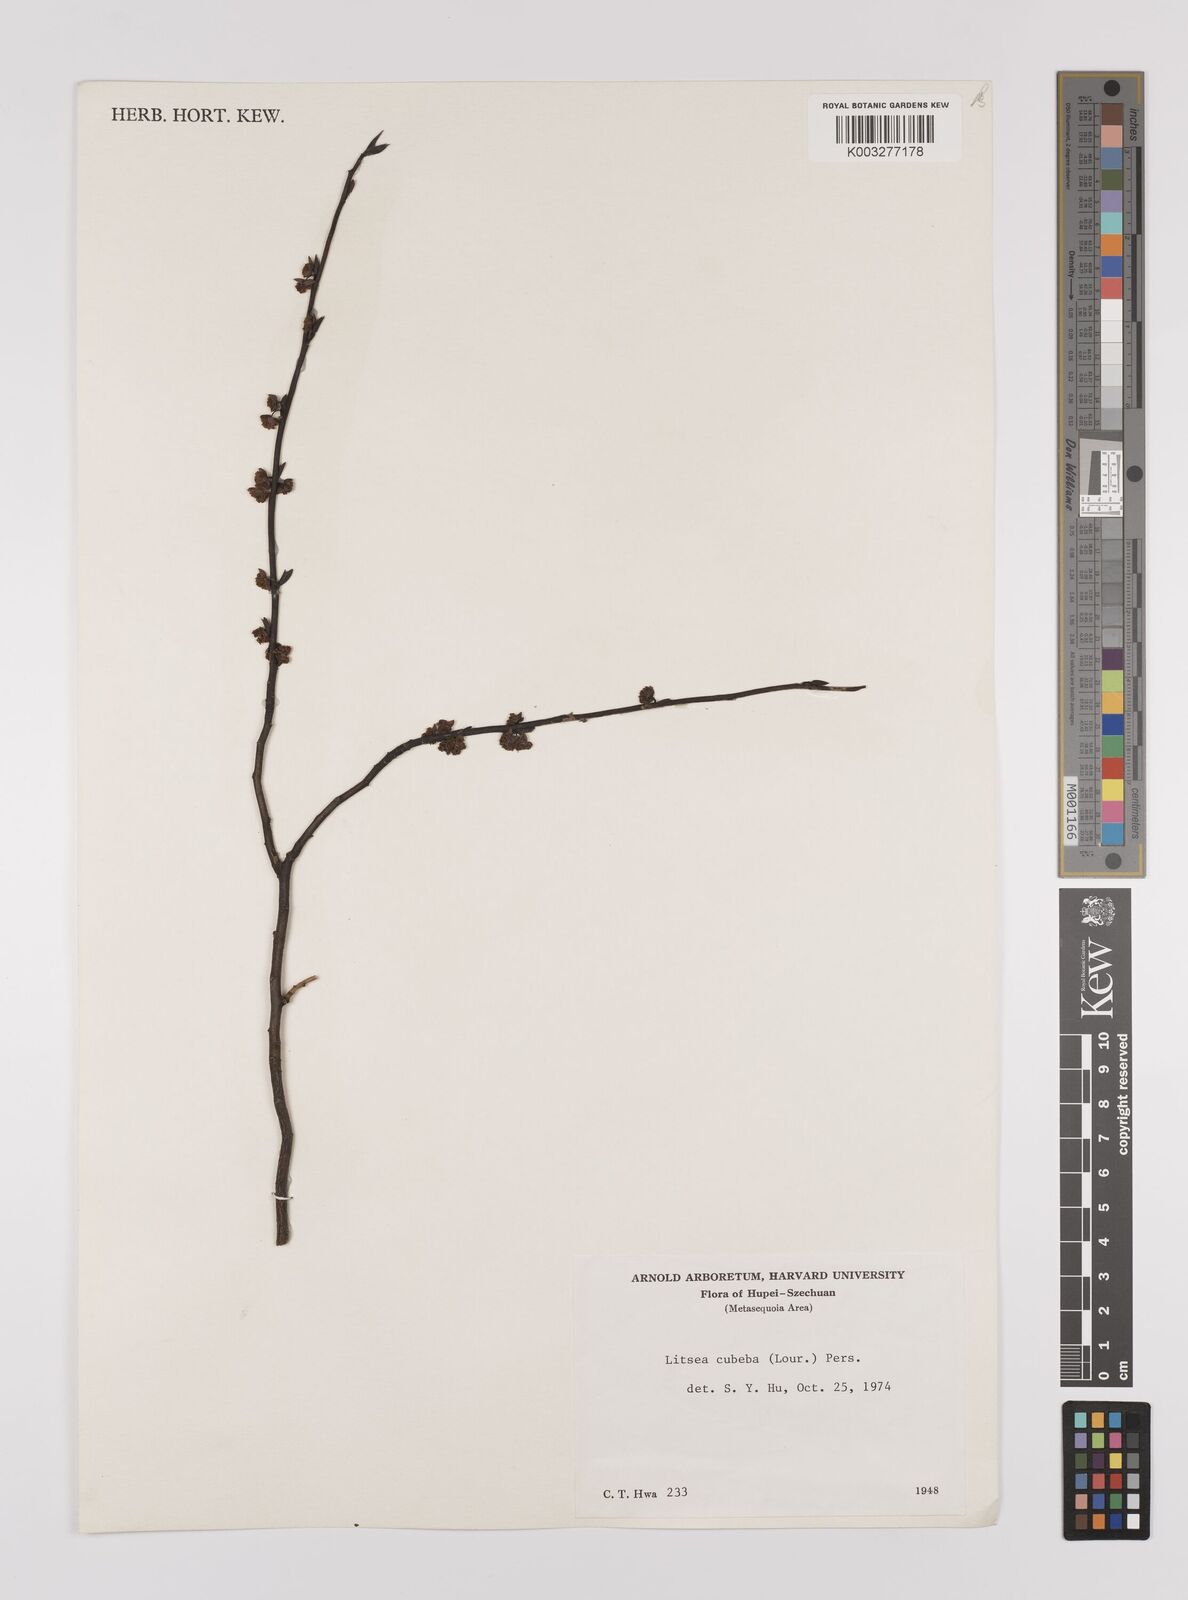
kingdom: Plantae
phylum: Tracheophyta
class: Magnoliopsida
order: Laurales
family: Lauraceae
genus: Litsea
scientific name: Litsea cubeba
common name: Mountain-pepper
